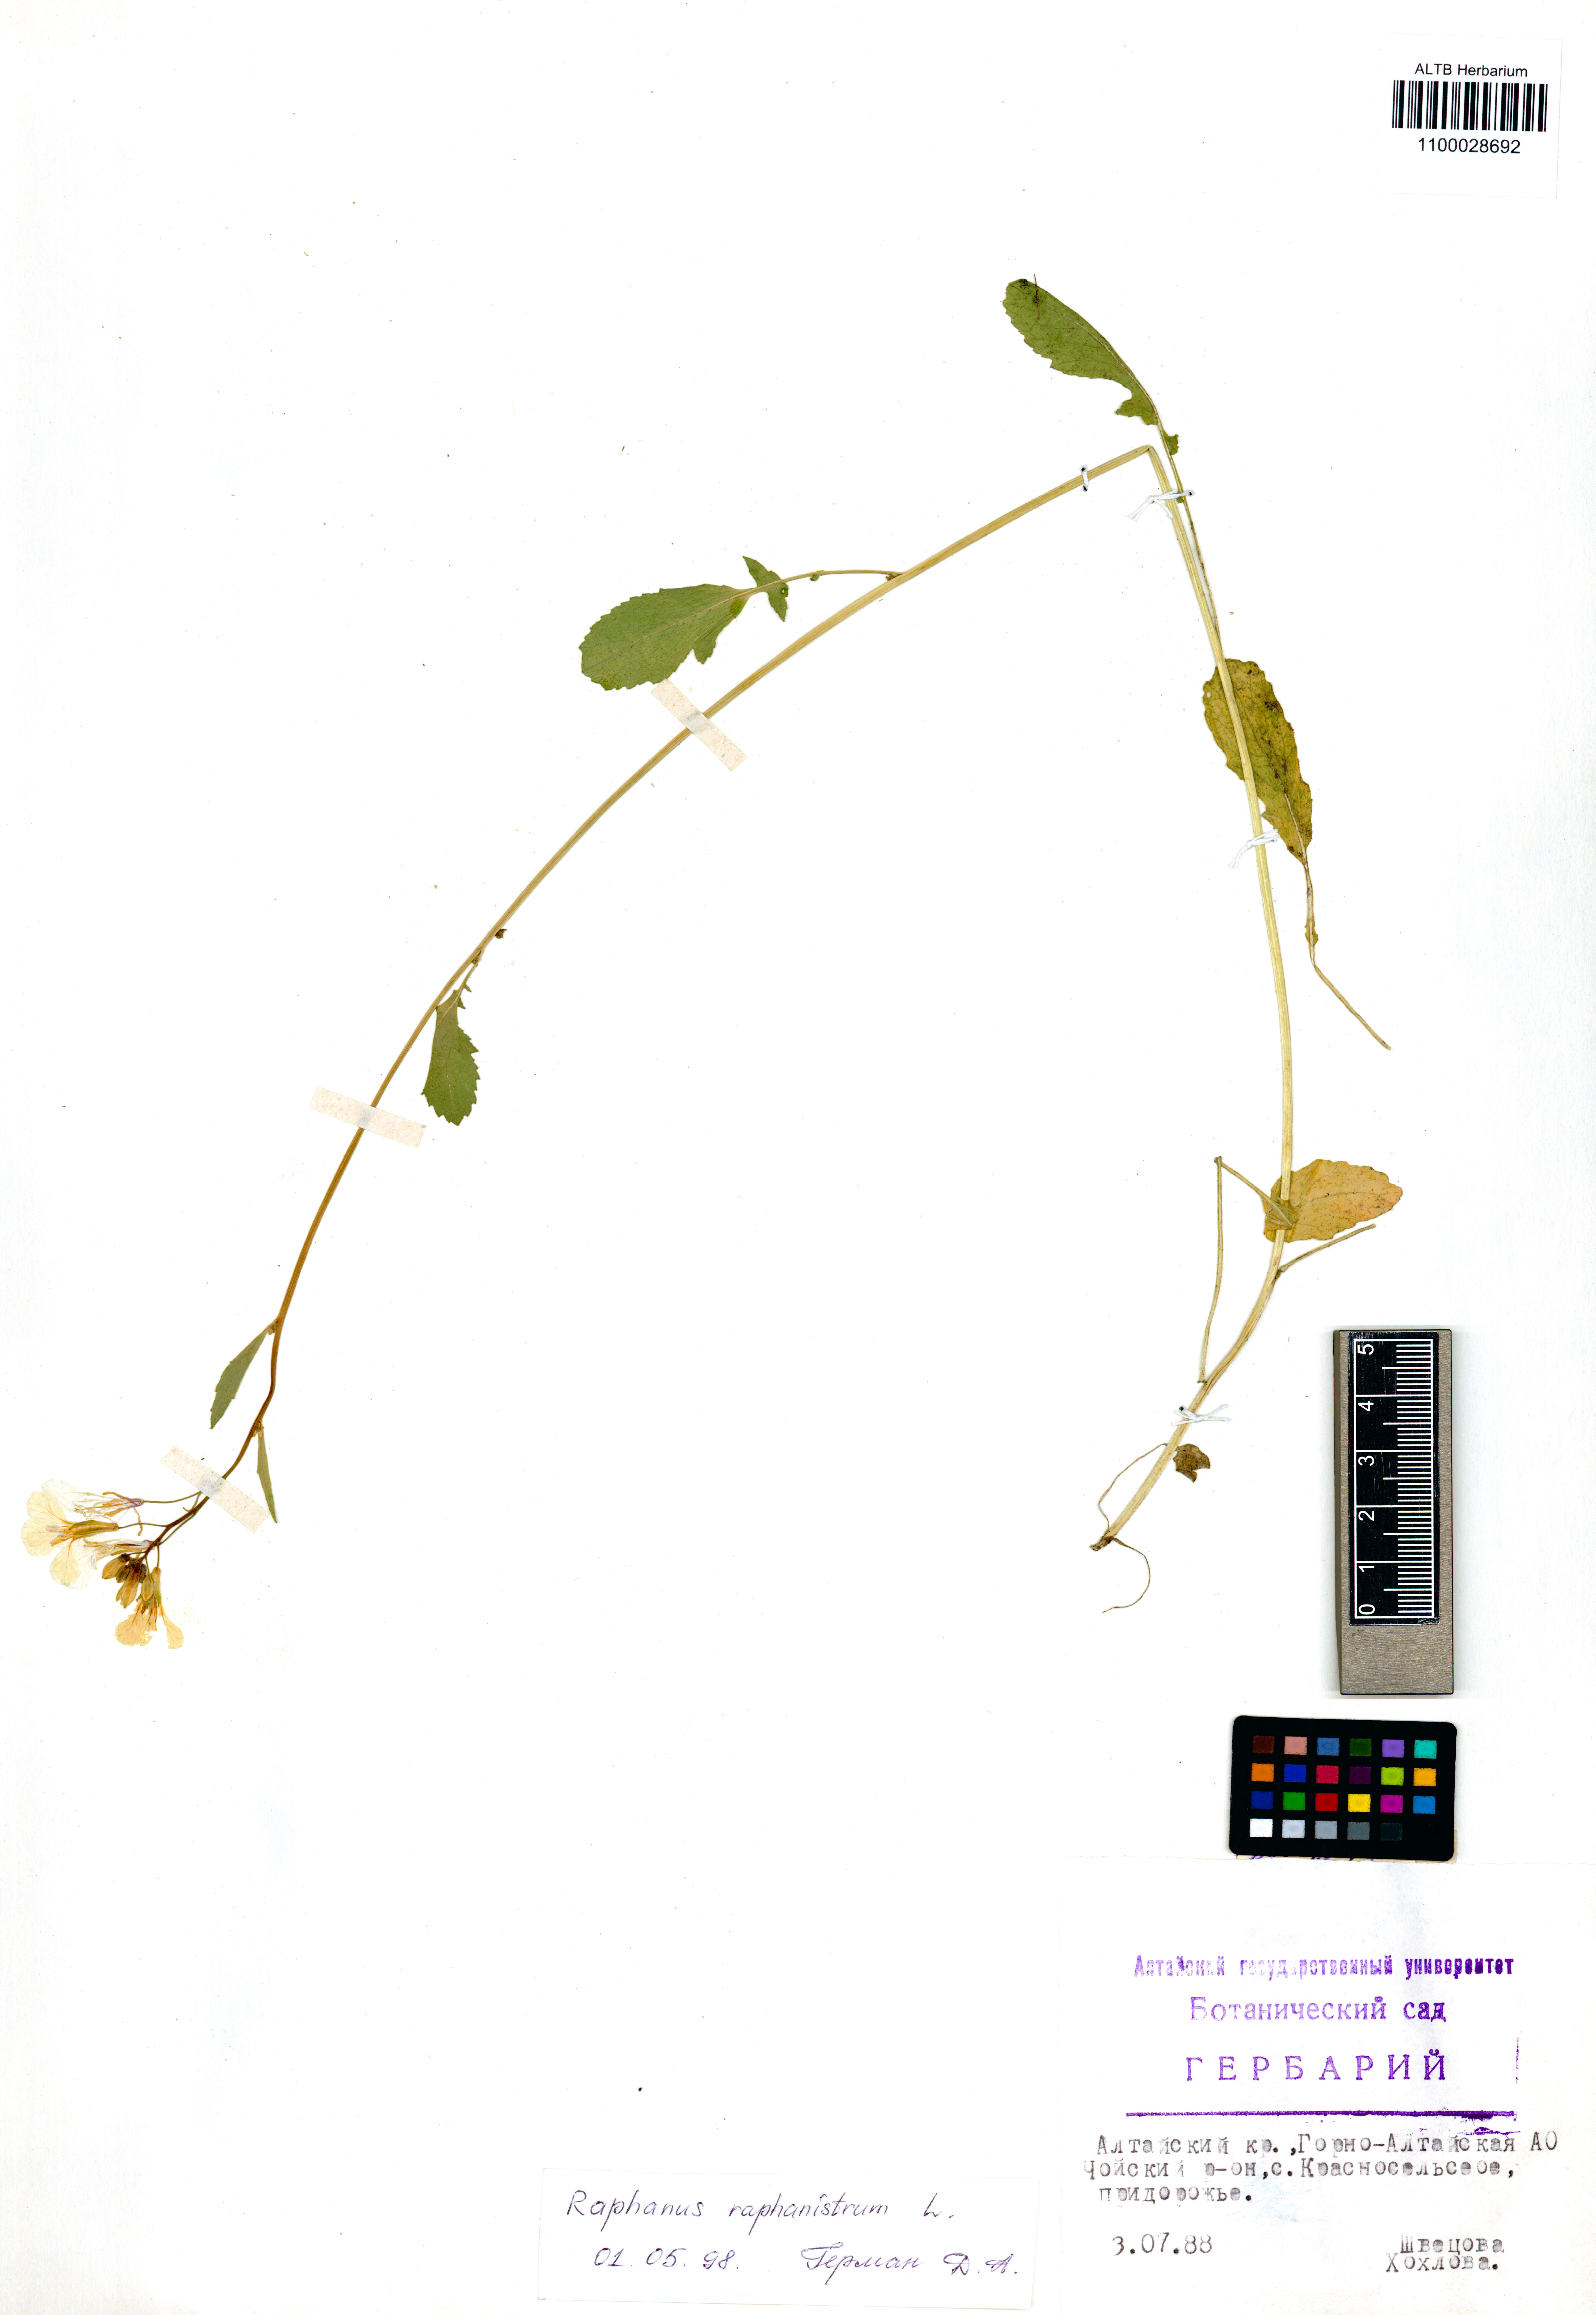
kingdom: Plantae
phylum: Tracheophyta
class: Magnoliopsida
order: Brassicales
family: Brassicaceae
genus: Raphanus
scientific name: Raphanus raphanistrum
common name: Wild radish
